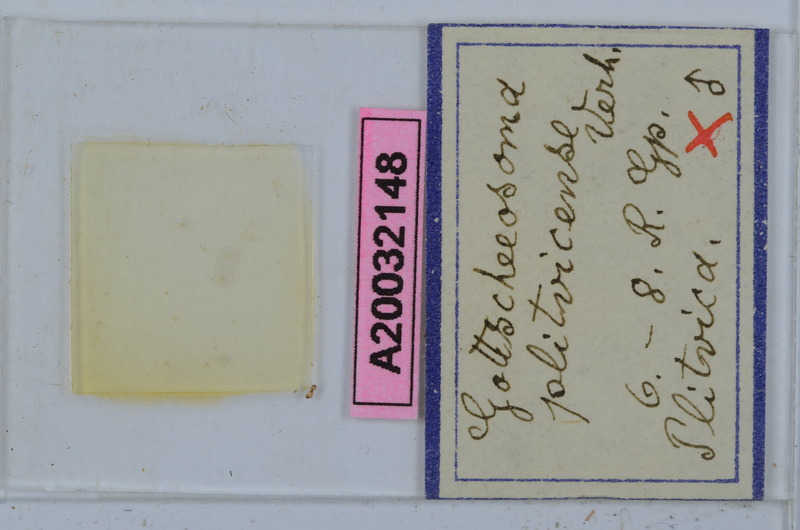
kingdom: Animalia
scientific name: Animalia
